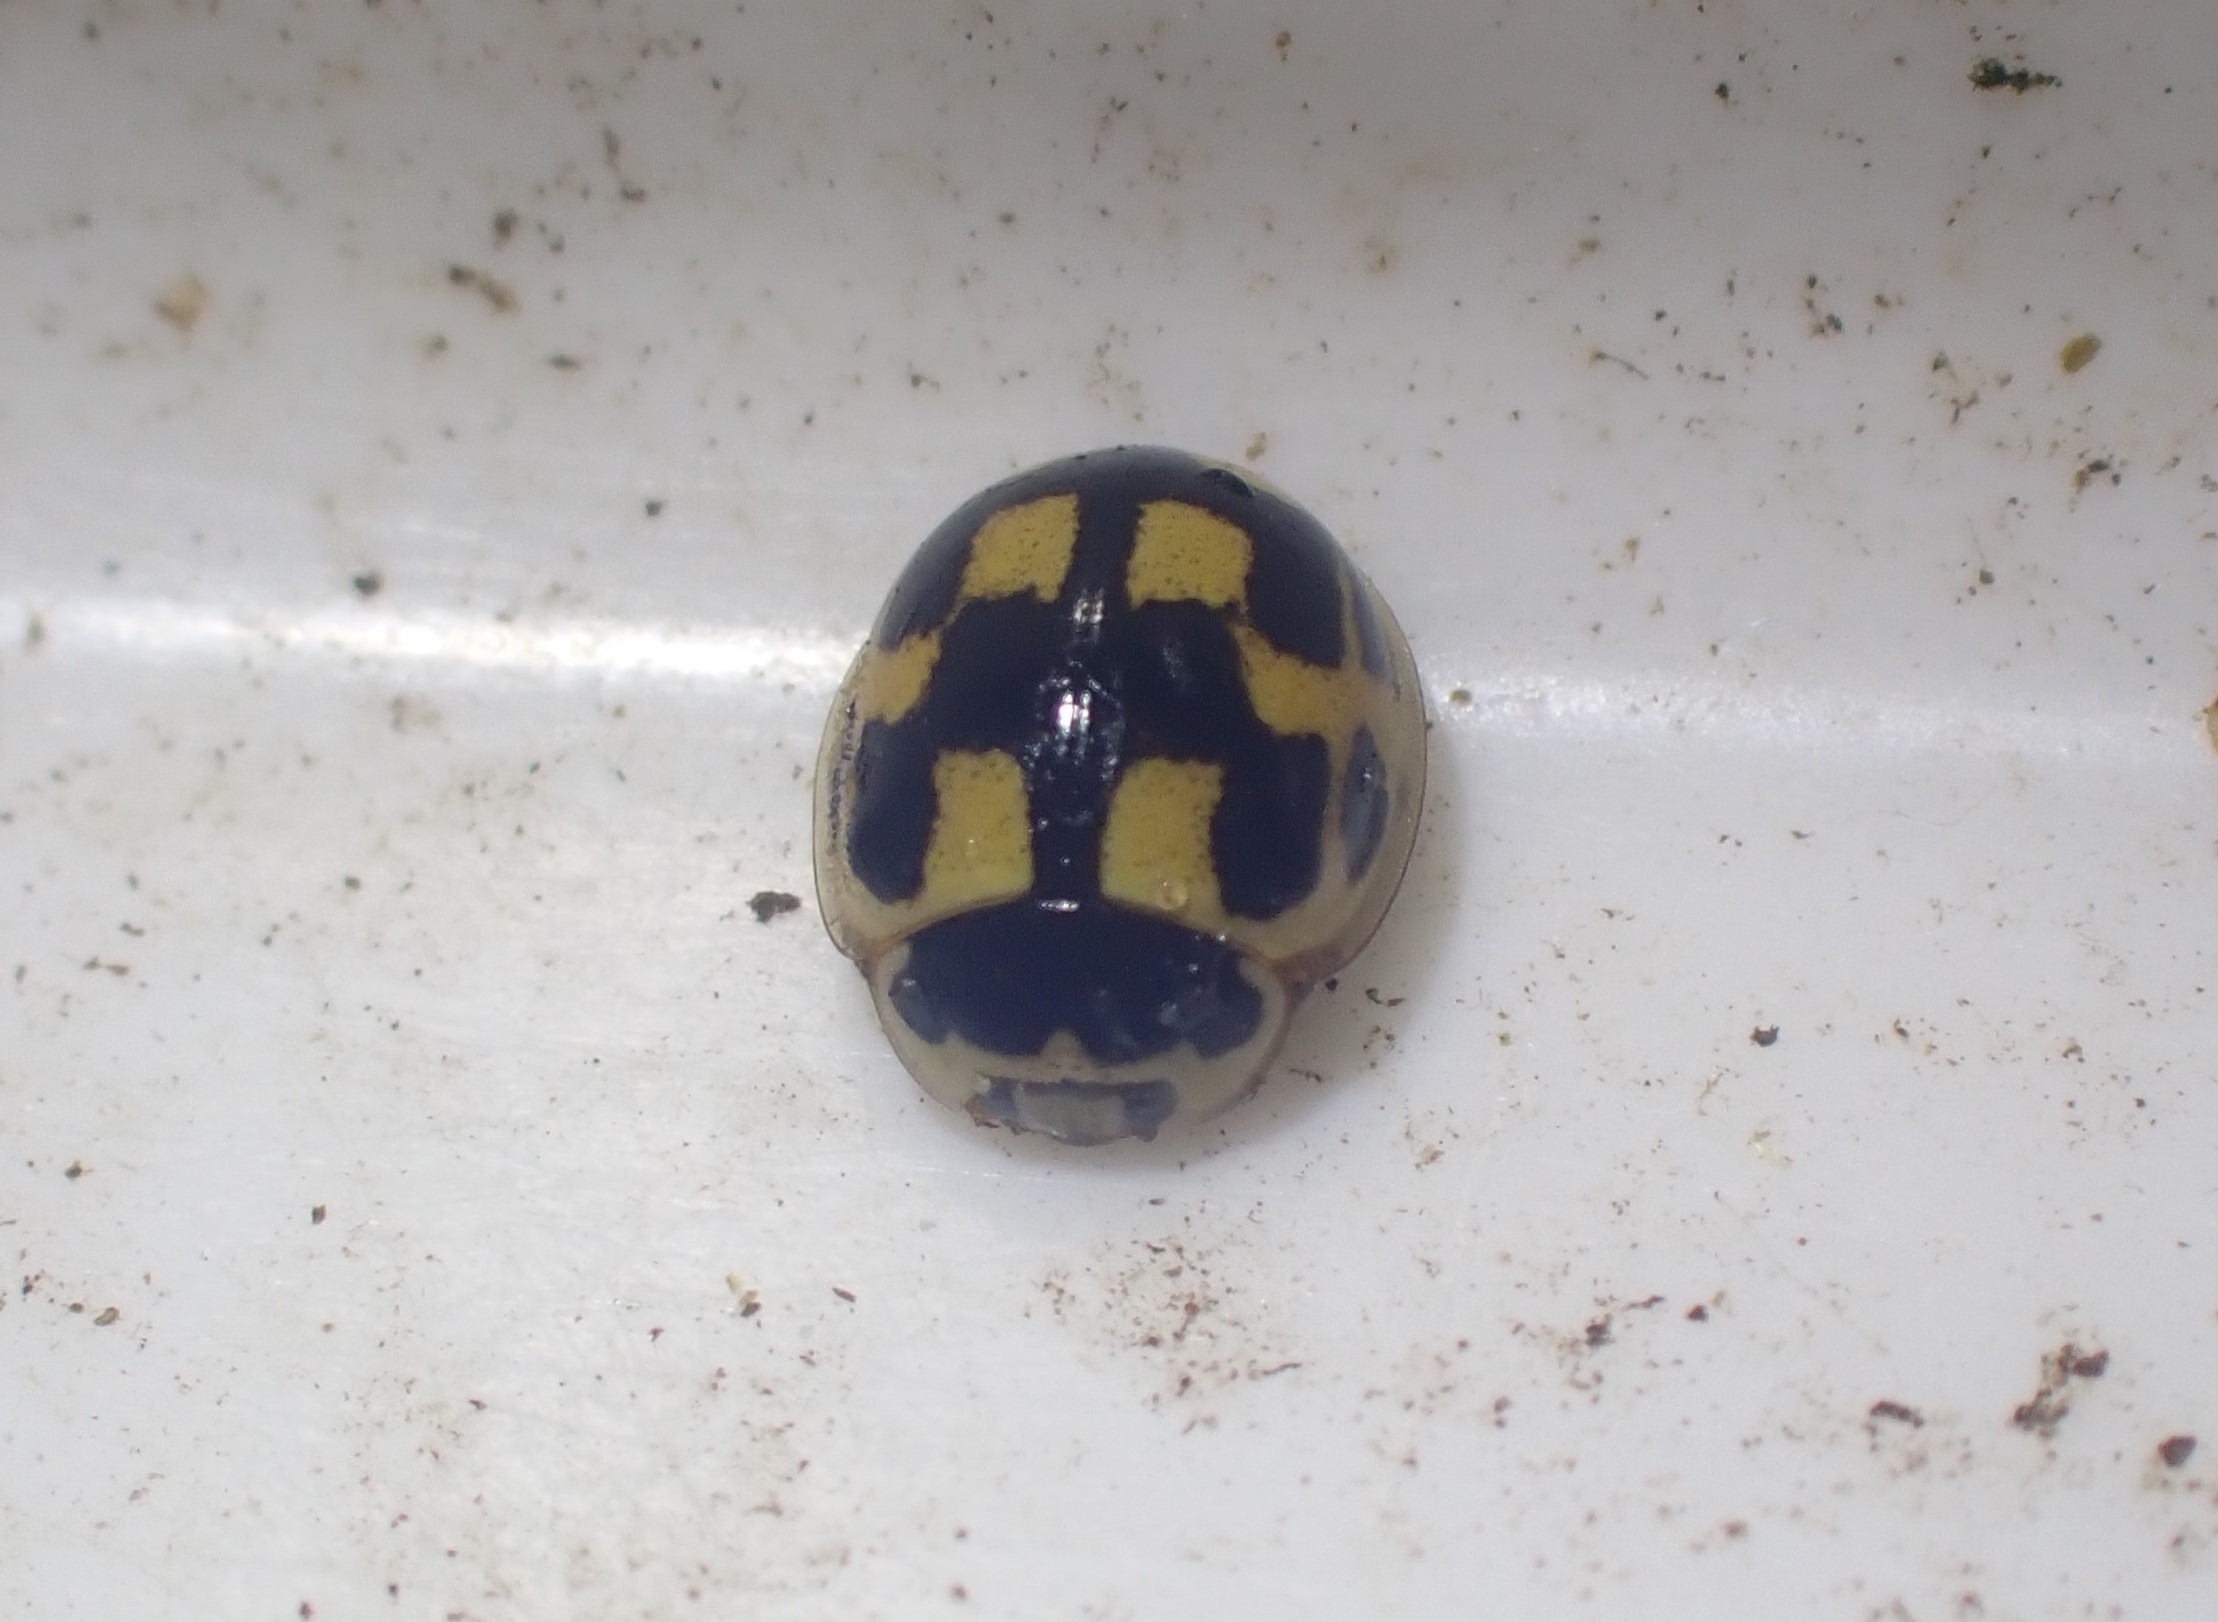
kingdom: Animalia
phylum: Arthropoda
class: Insecta
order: Coleoptera
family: Coccinellidae
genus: Propylaea
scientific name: Propylaea quatuordecimpunctata
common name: Skakbræt
